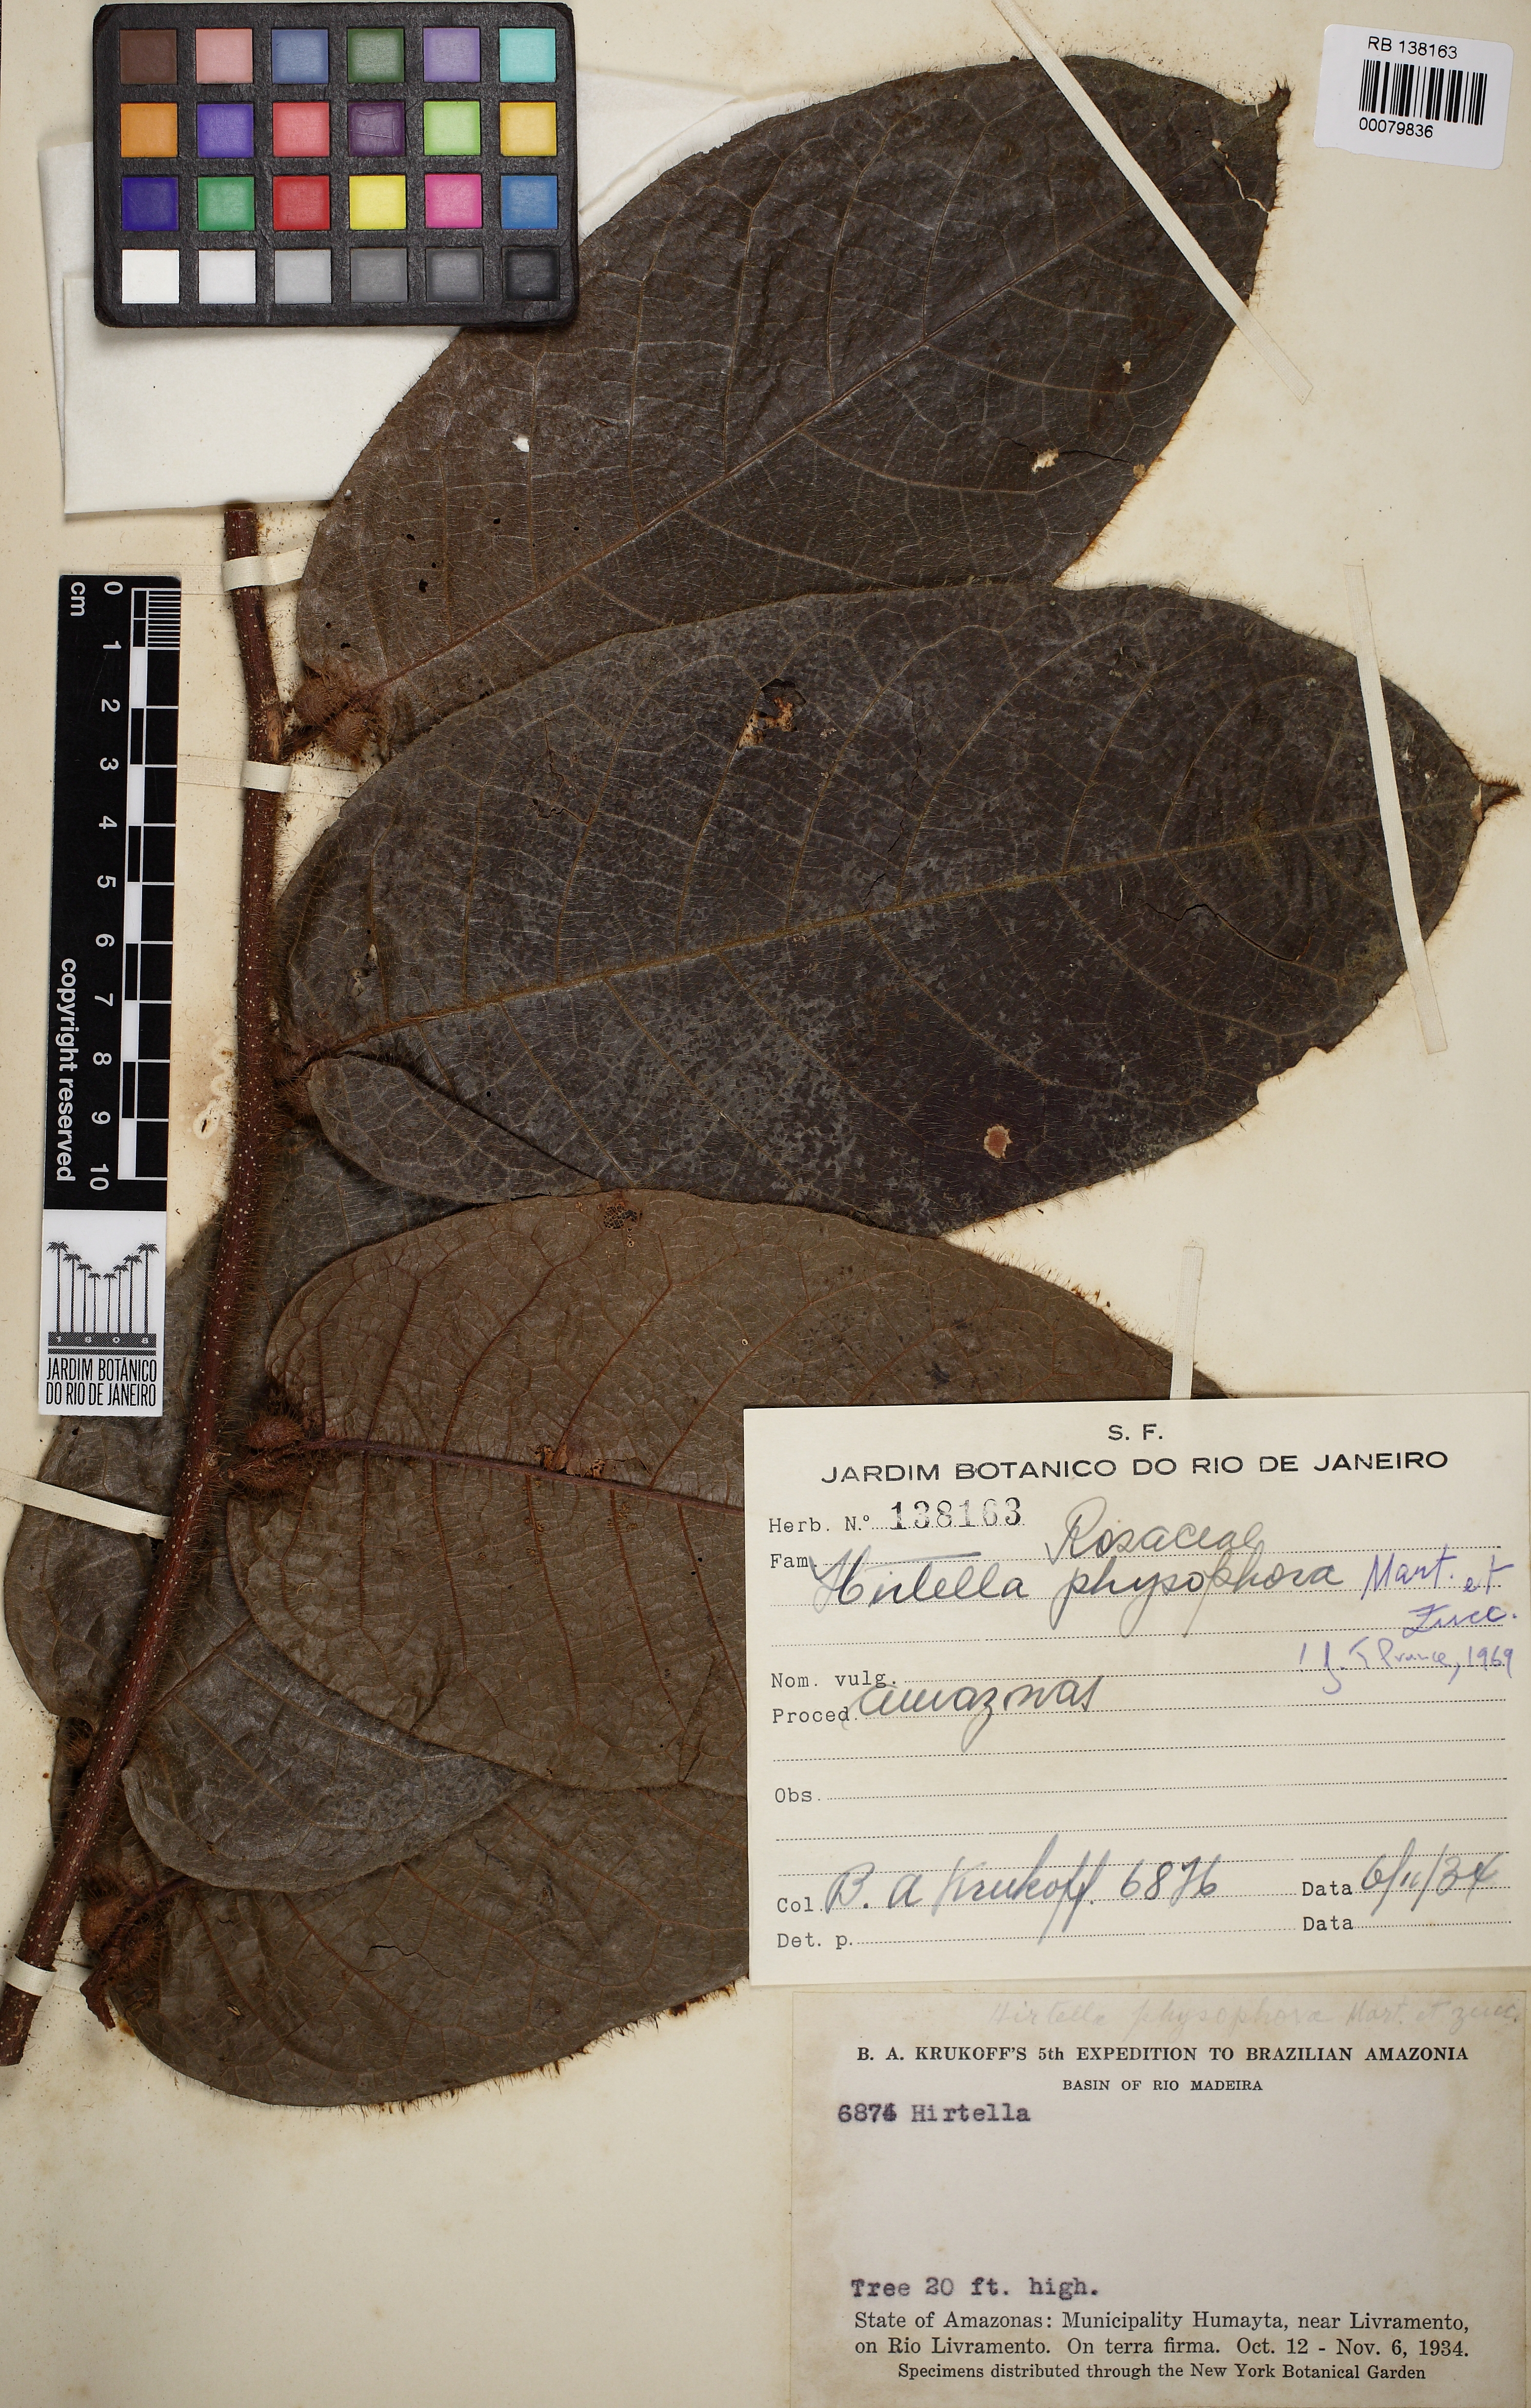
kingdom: Plantae
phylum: Tracheophyta
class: Magnoliopsida
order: Malpighiales
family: Chrysobalanaceae
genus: Hirtella
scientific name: Hirtella physophora
